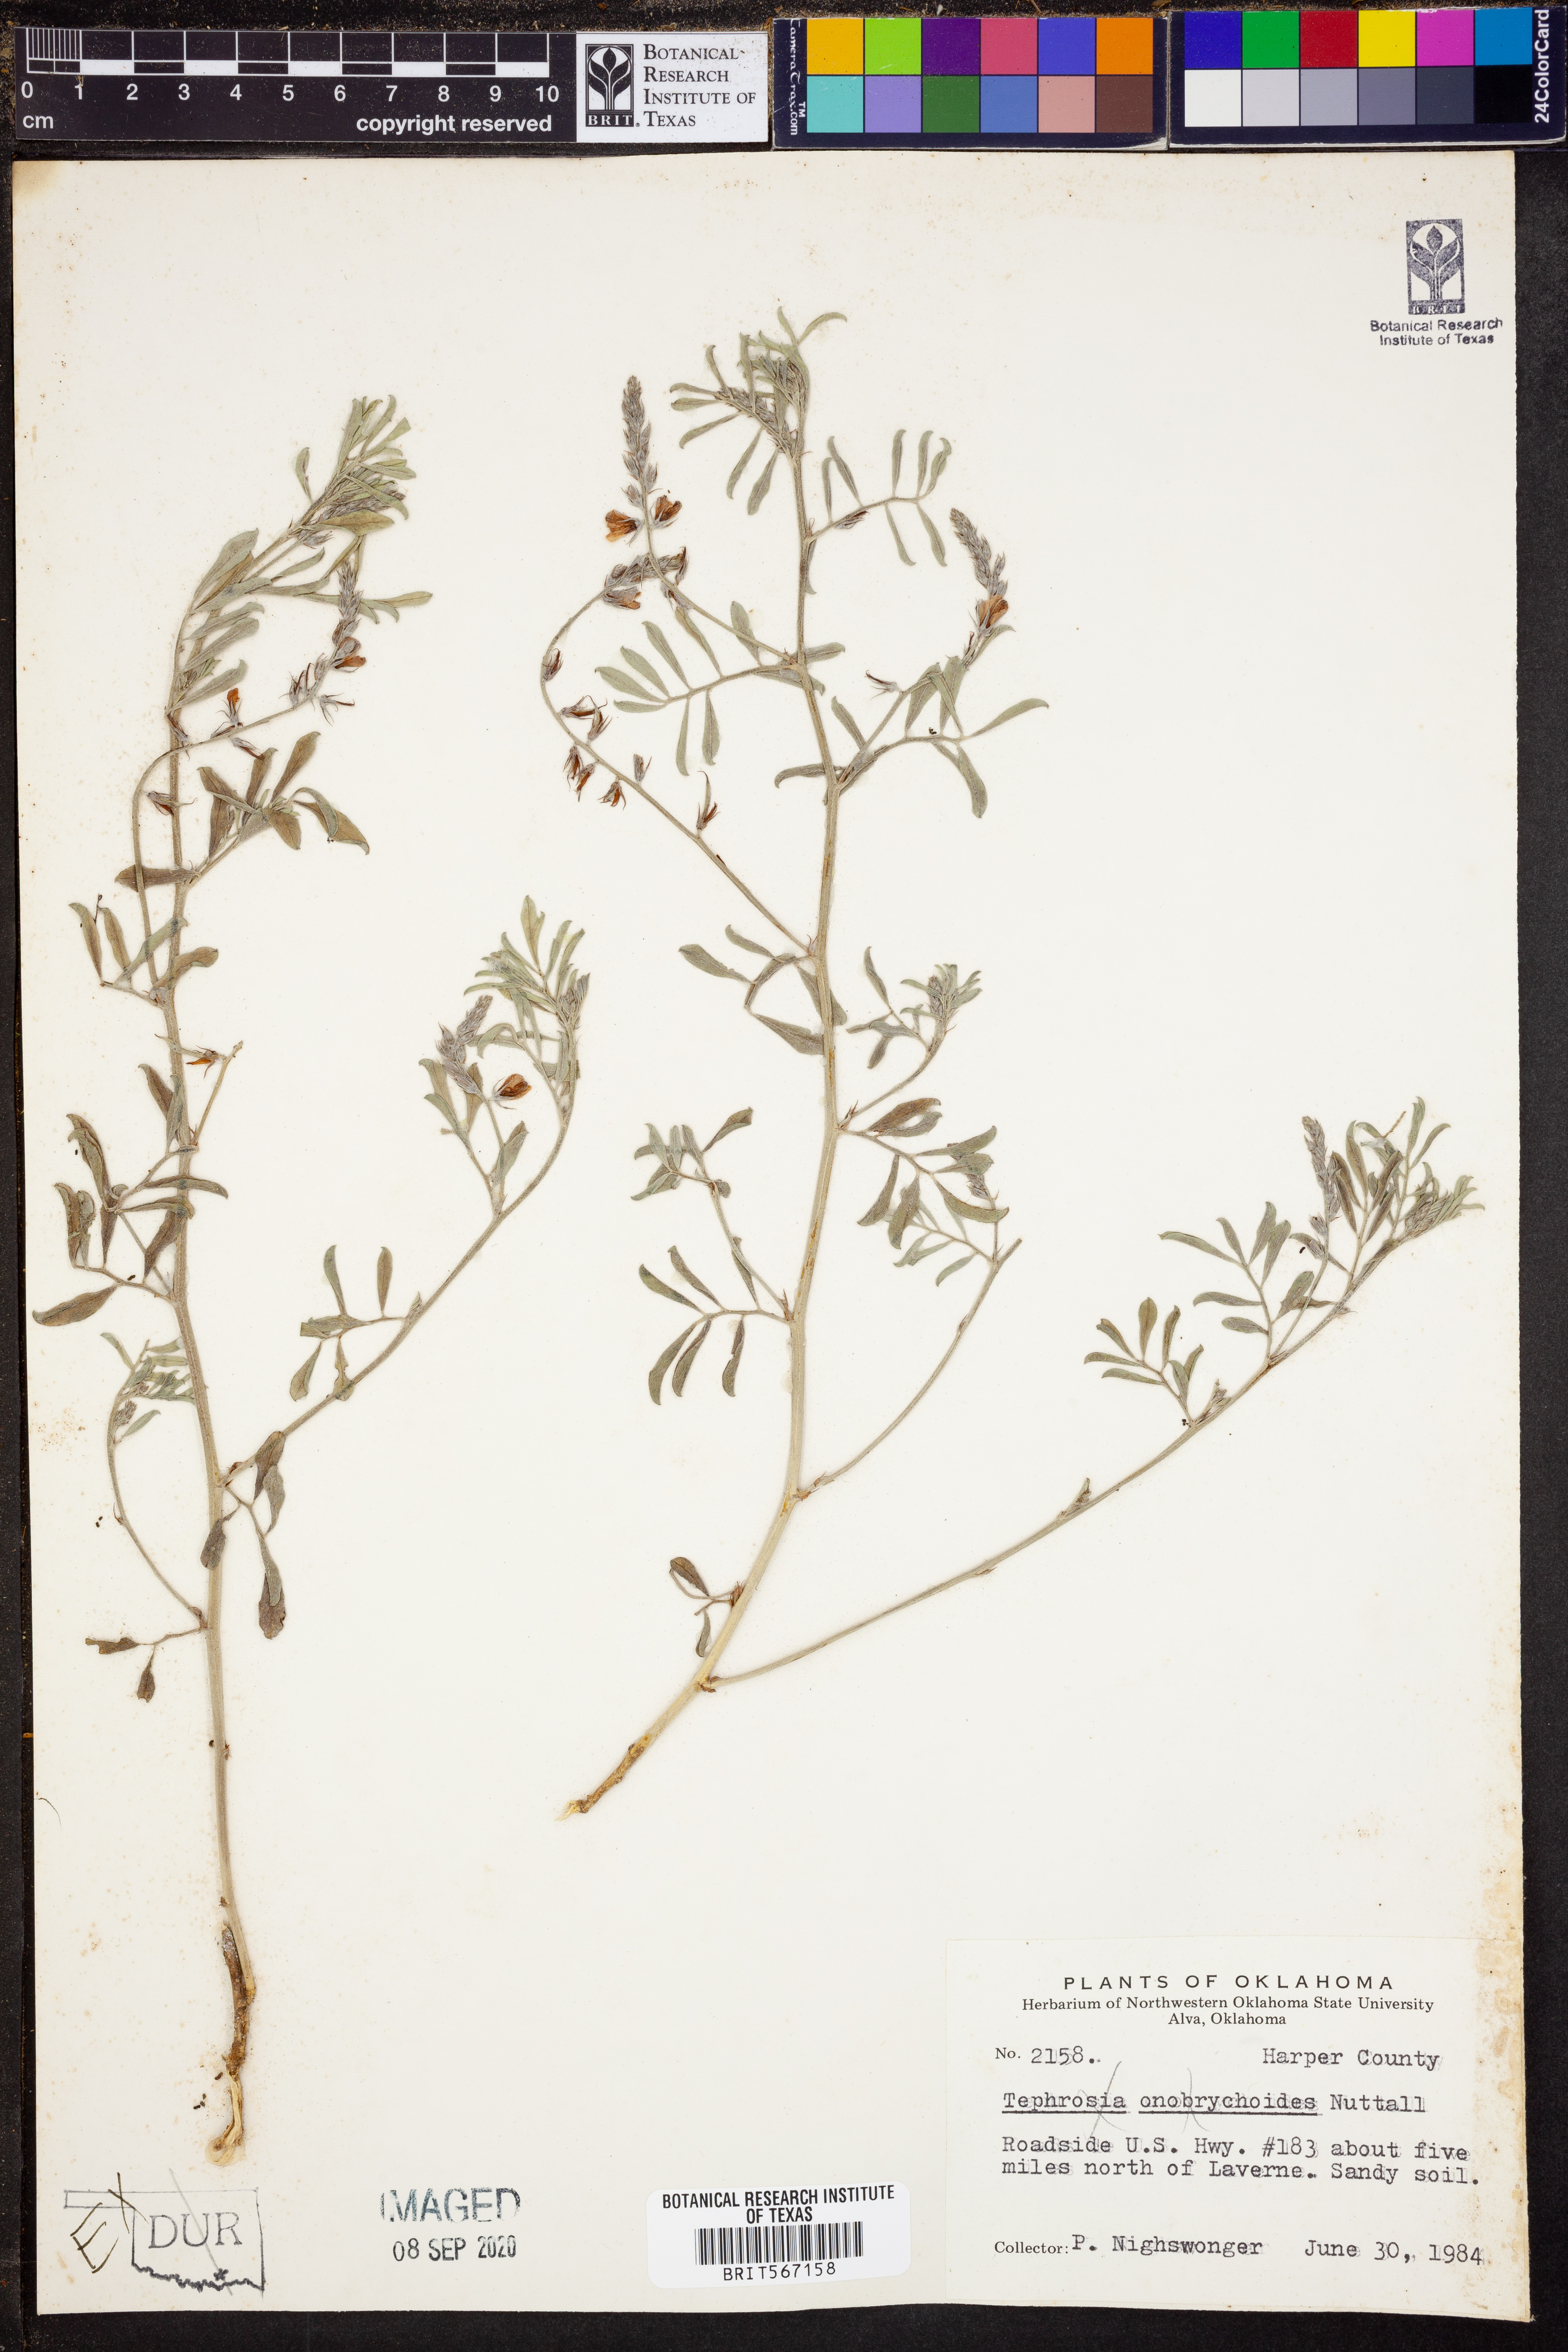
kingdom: Plantae
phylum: Tracheophyta
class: Magnoliopsida
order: Fabales
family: Fabaceae
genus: Tephrosia
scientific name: Tephrosia onobrychoides
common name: Multi-bloom hoary-pea
